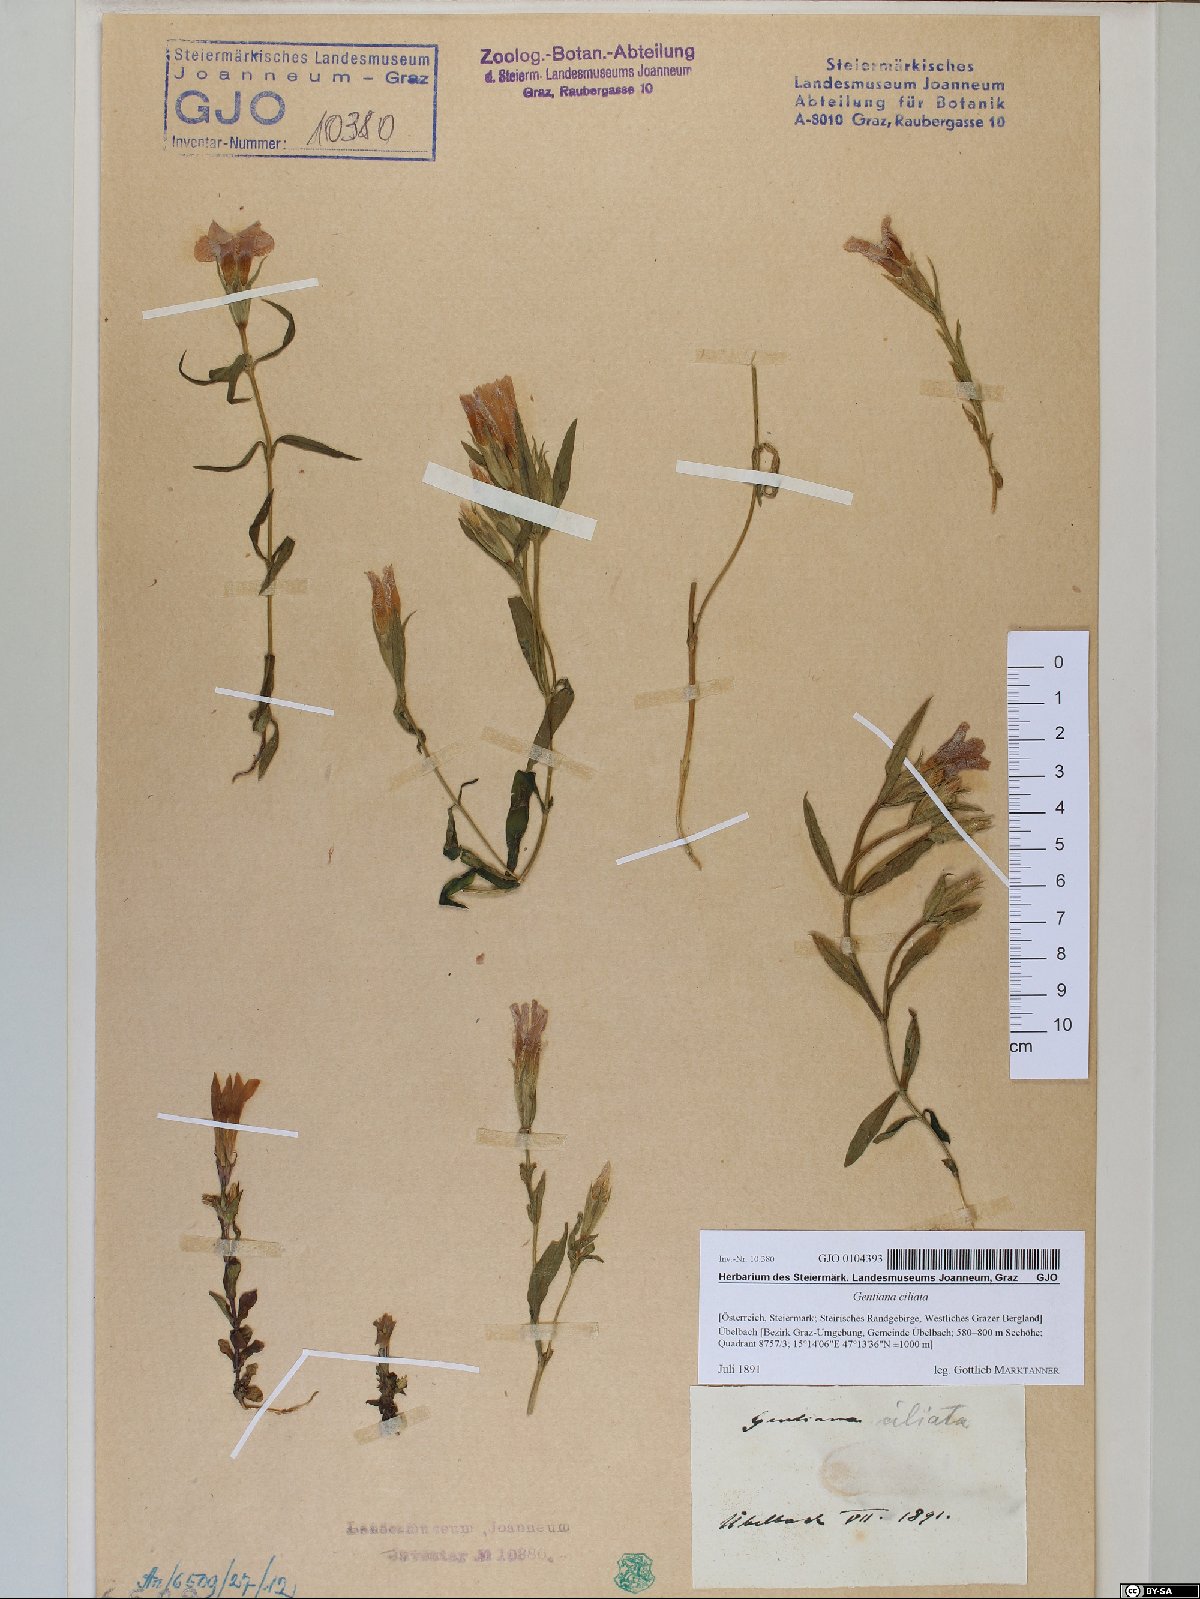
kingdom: Plantae
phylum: Tracheophyta
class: Magnoliopsida
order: Gentianales
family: Gentianaceae
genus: Gentianopsis
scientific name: Gentianopsis ciliata
